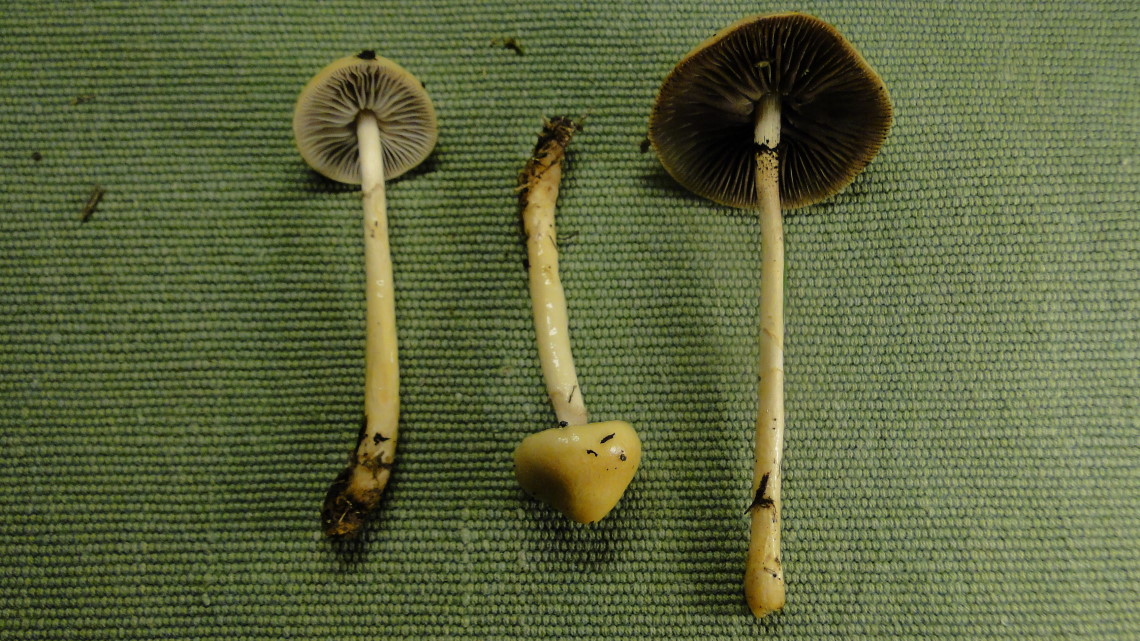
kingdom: Fungi
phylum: Basidiomycota
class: Agaricomycetes
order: Agaricales
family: Strophariaceae
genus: Protostropharia
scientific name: Protostropharia semiglobata
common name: halvkugleformet bredblad
